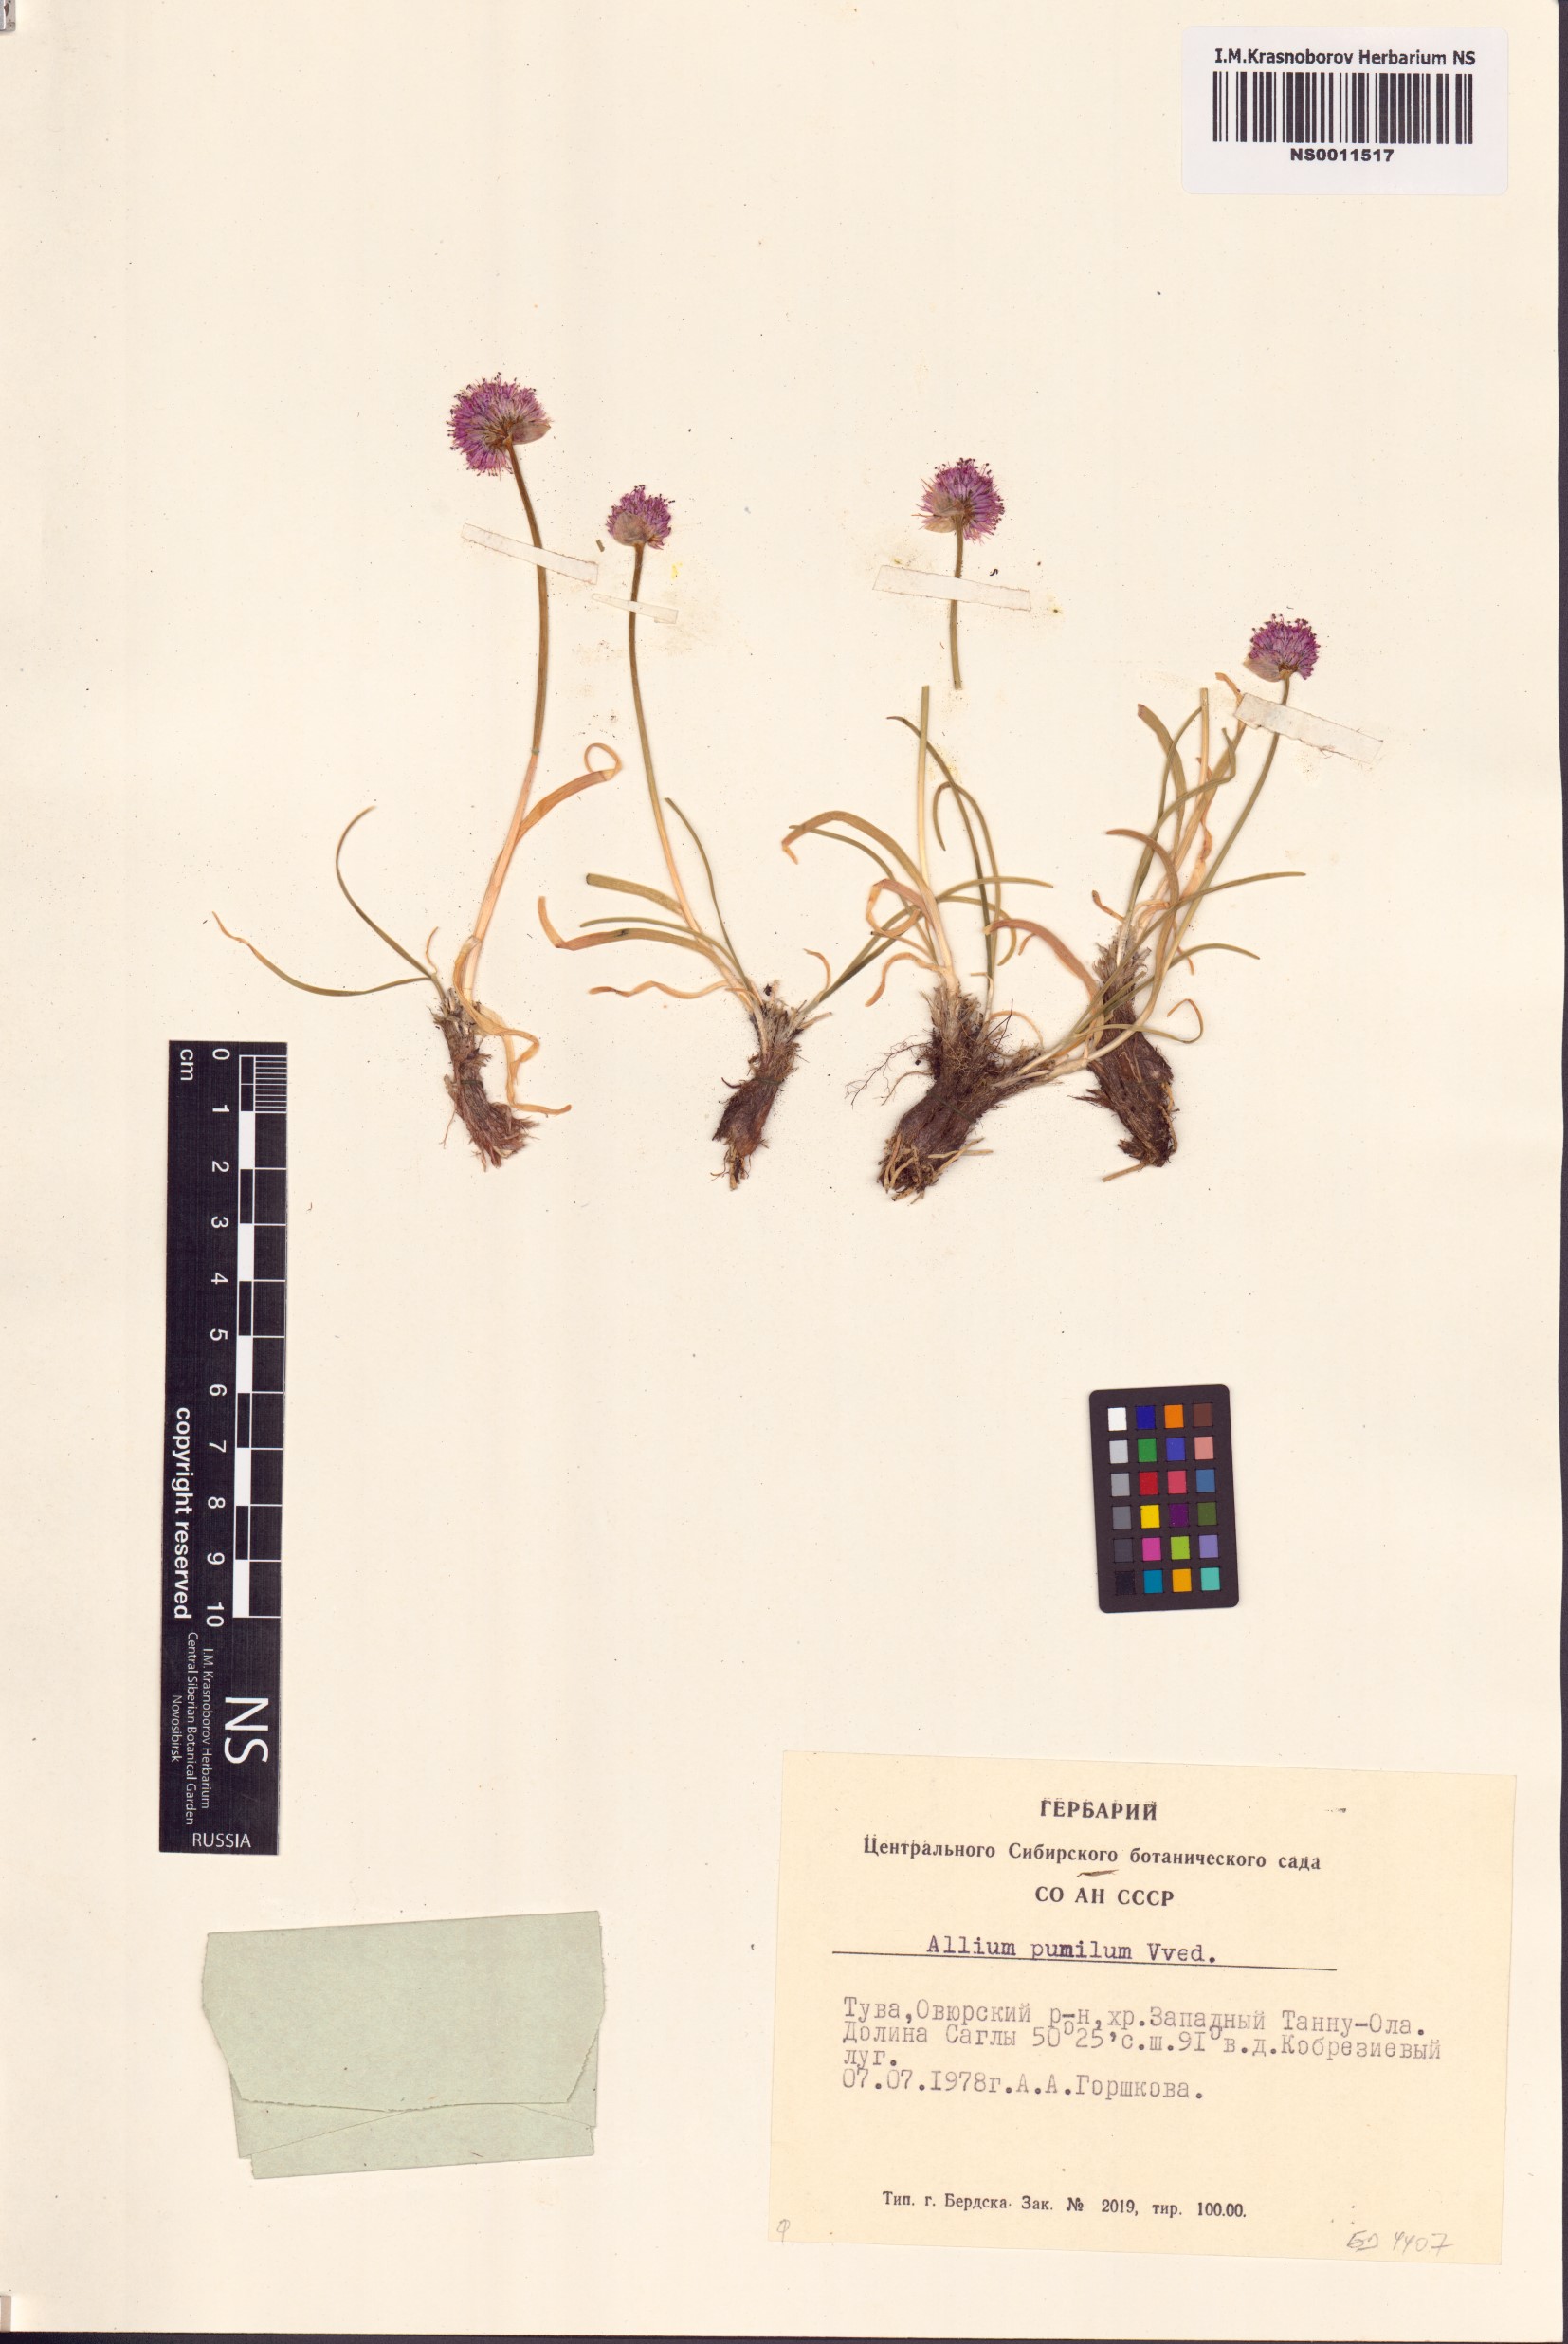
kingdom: Plantae
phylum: Tracheophyta
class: Liliopsida
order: Asparagales
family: Amaryllidaceae
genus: Allium
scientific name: Allium pumilum
